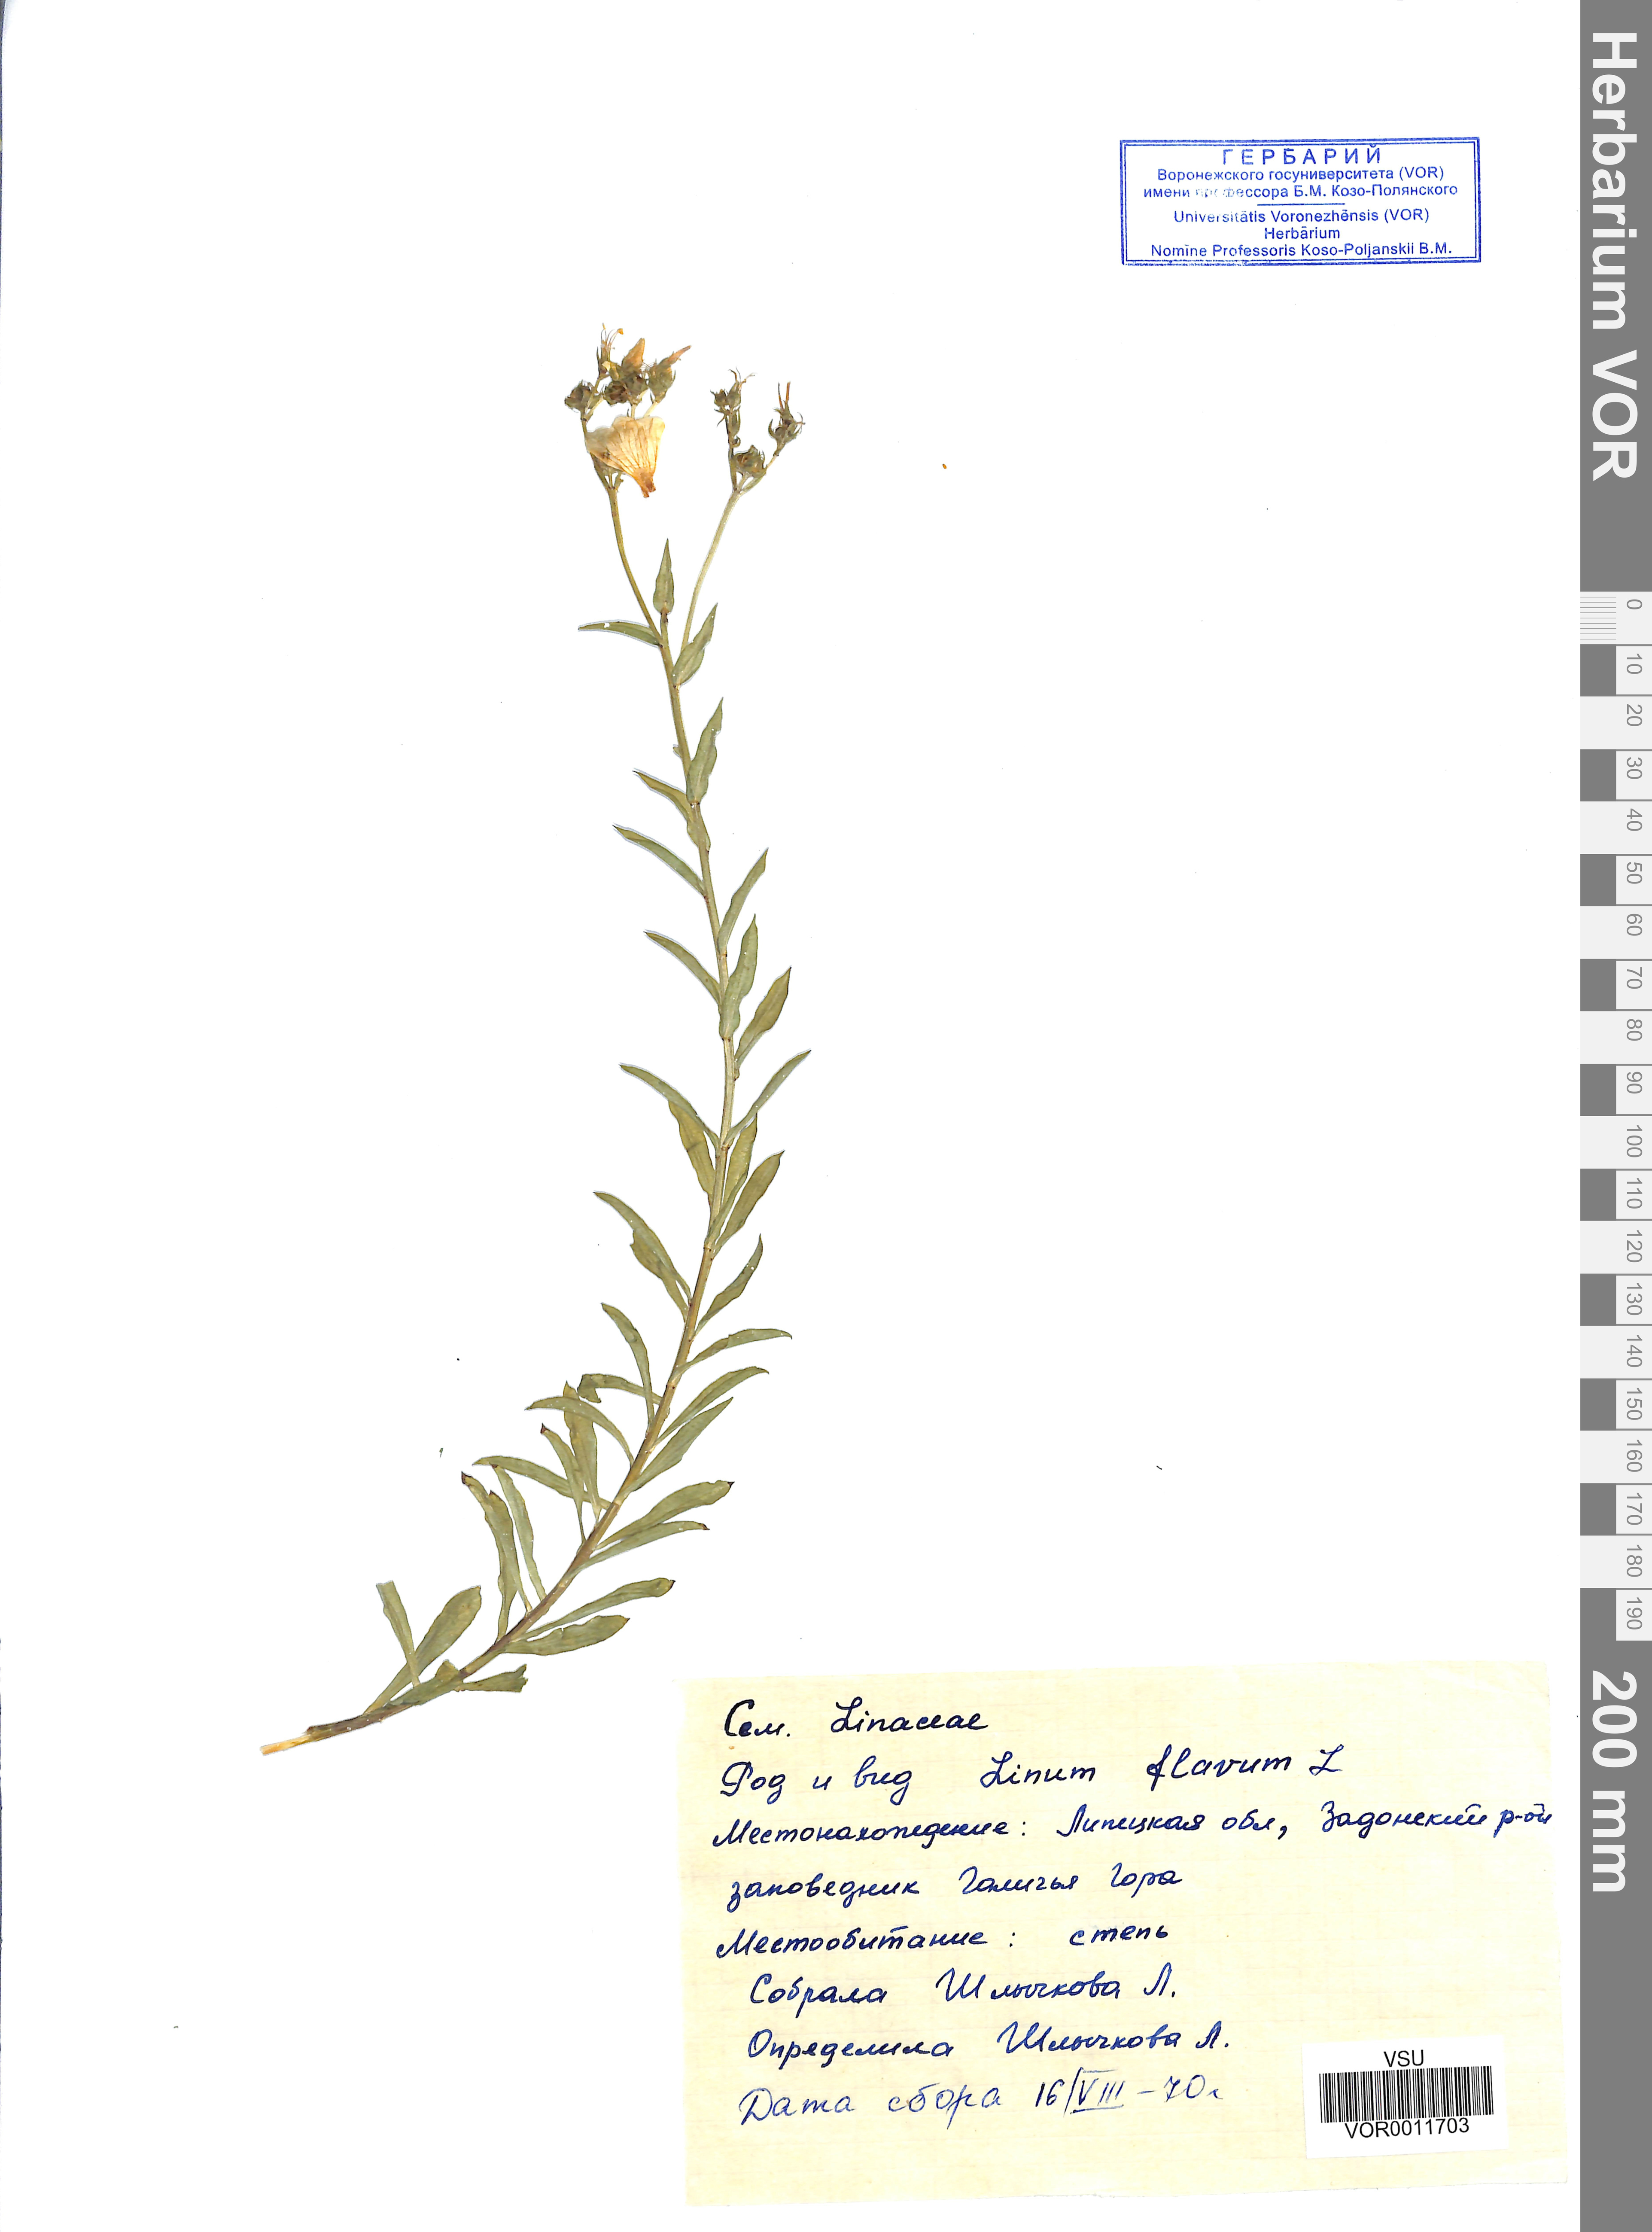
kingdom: Plantae
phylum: Tracheophyta
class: Magnoliopsida
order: Malpighiales
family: Linaceae
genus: Linum
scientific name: Linum flavum
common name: Yellow flax
